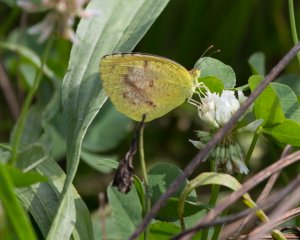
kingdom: Animalia
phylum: Arthropoda
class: Insecta
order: Lepidoptera
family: Pieridae
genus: Abaeis
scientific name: Abaeis nicippe
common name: Sleepy Orange
